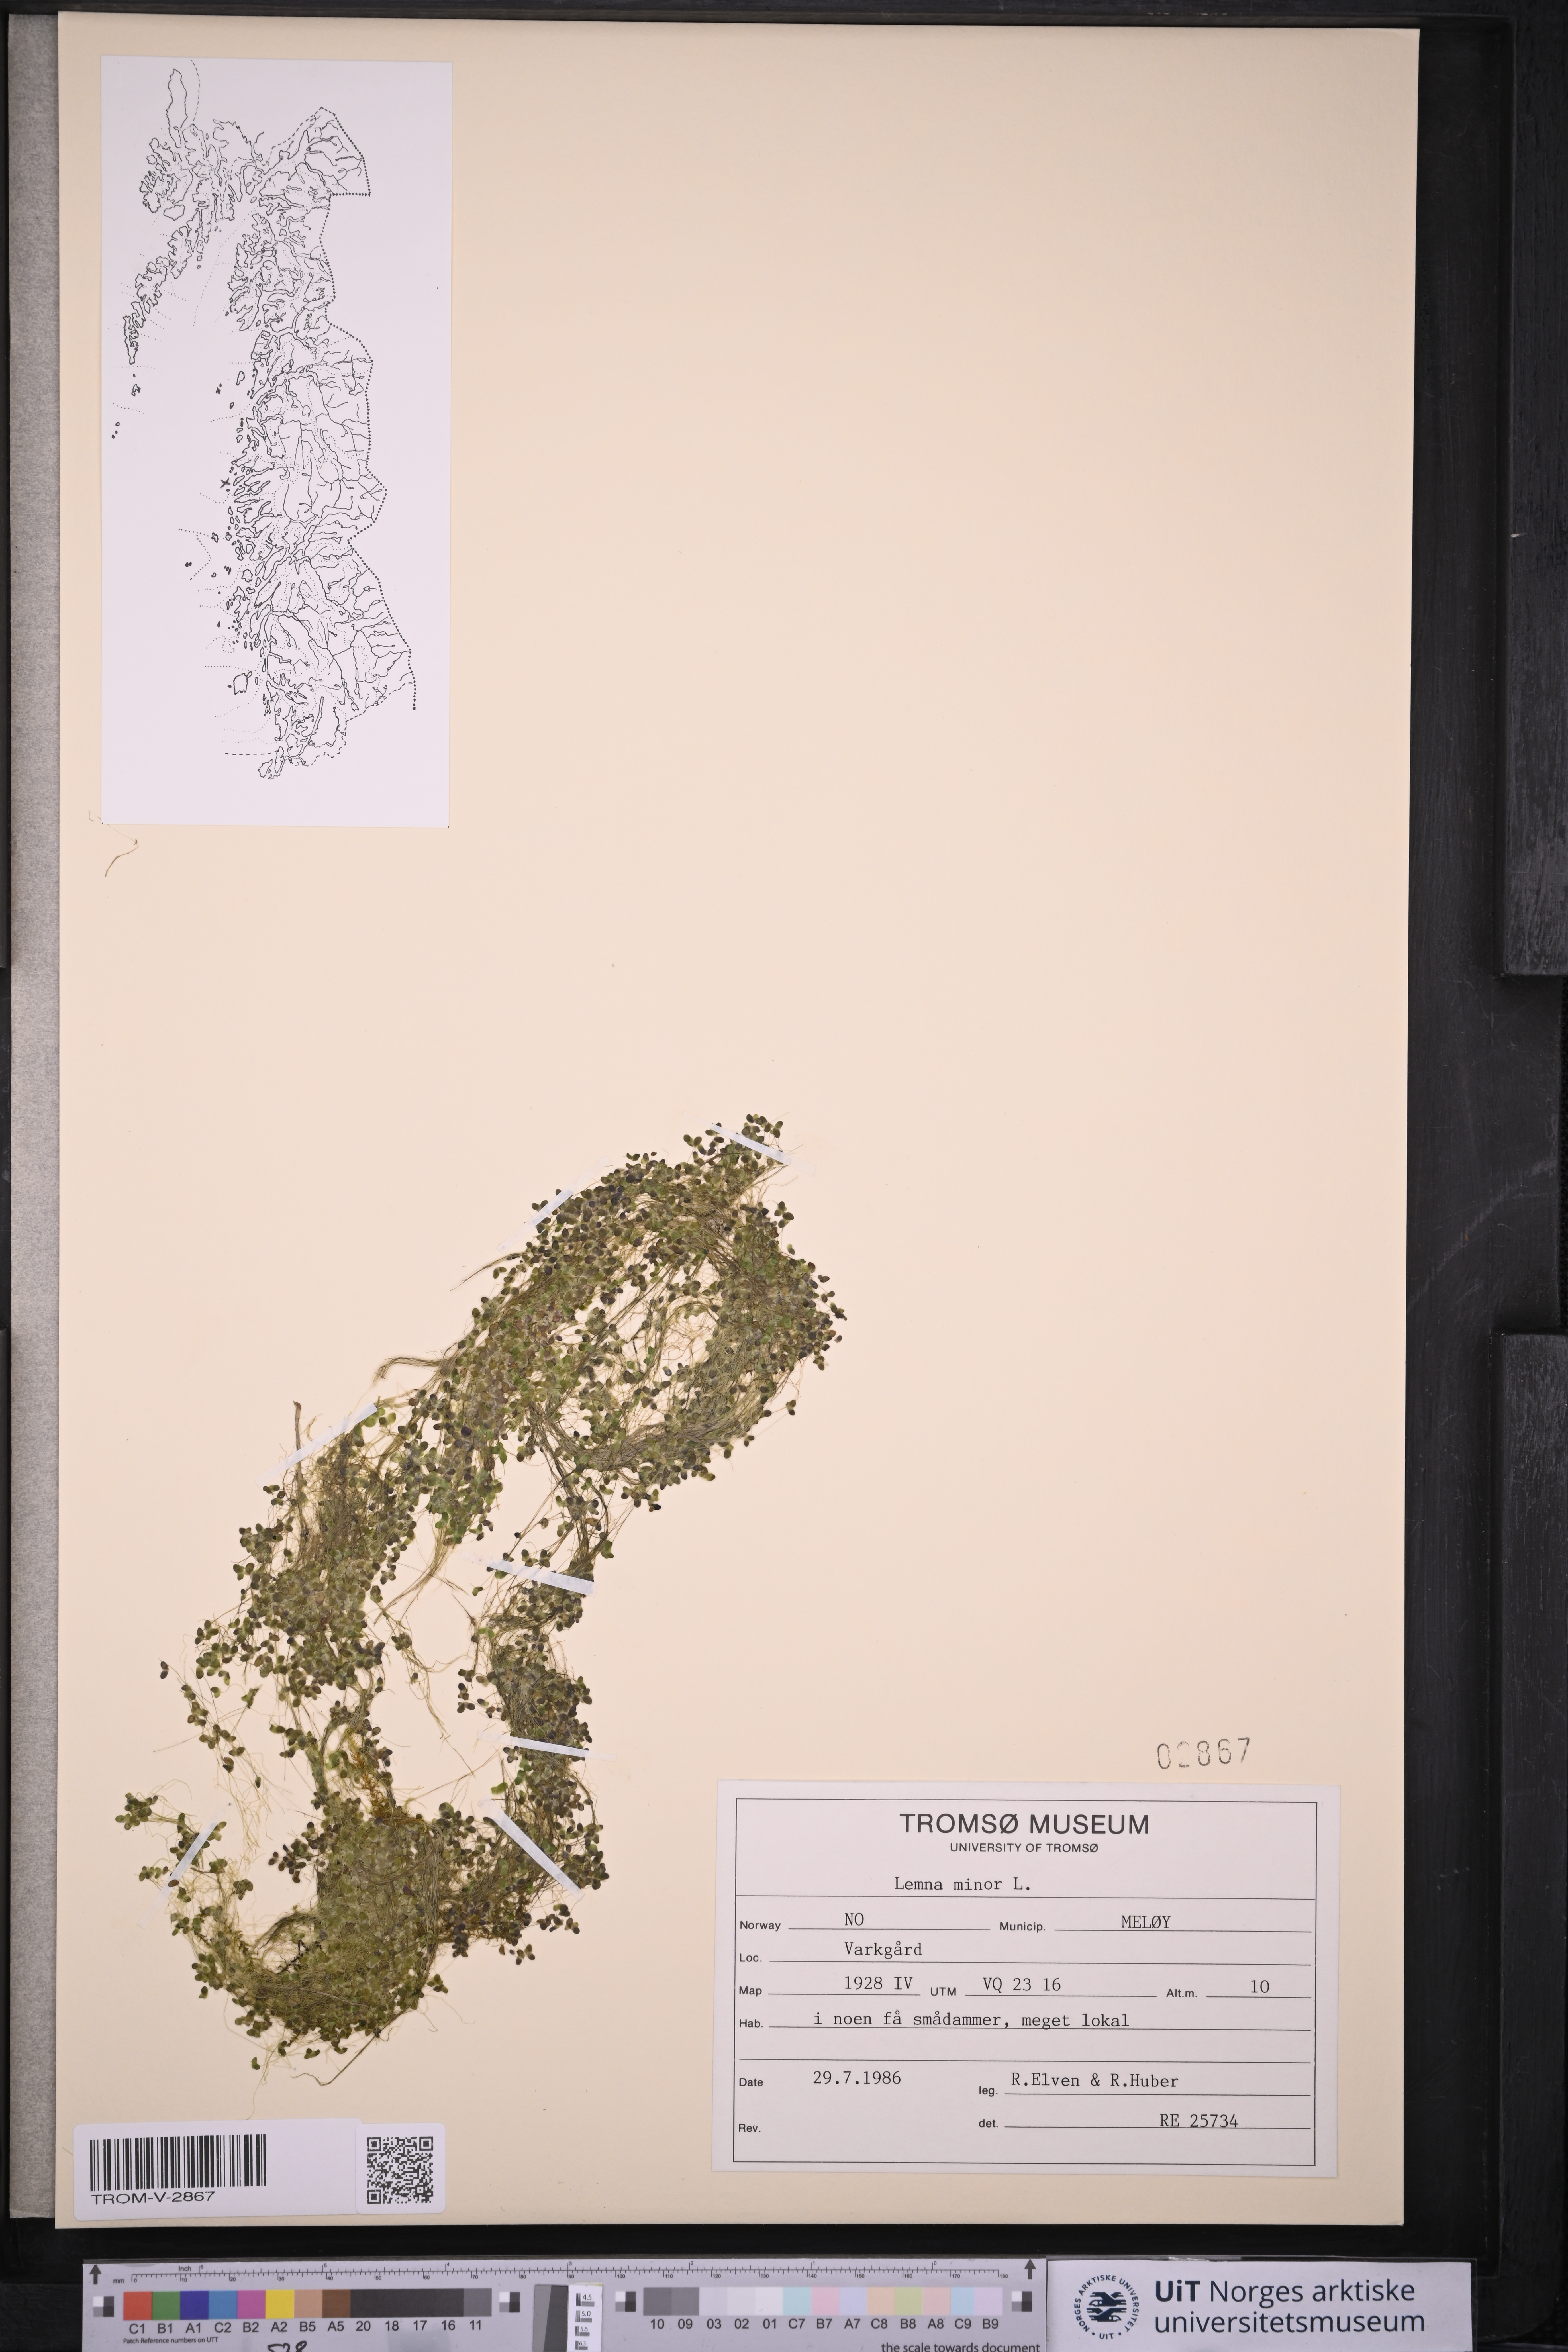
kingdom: Plantae
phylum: Tracheophyta
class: Liliopsida
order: Alismatales
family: Araceae
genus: Lemna
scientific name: Lemna minor
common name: Common duckweed
